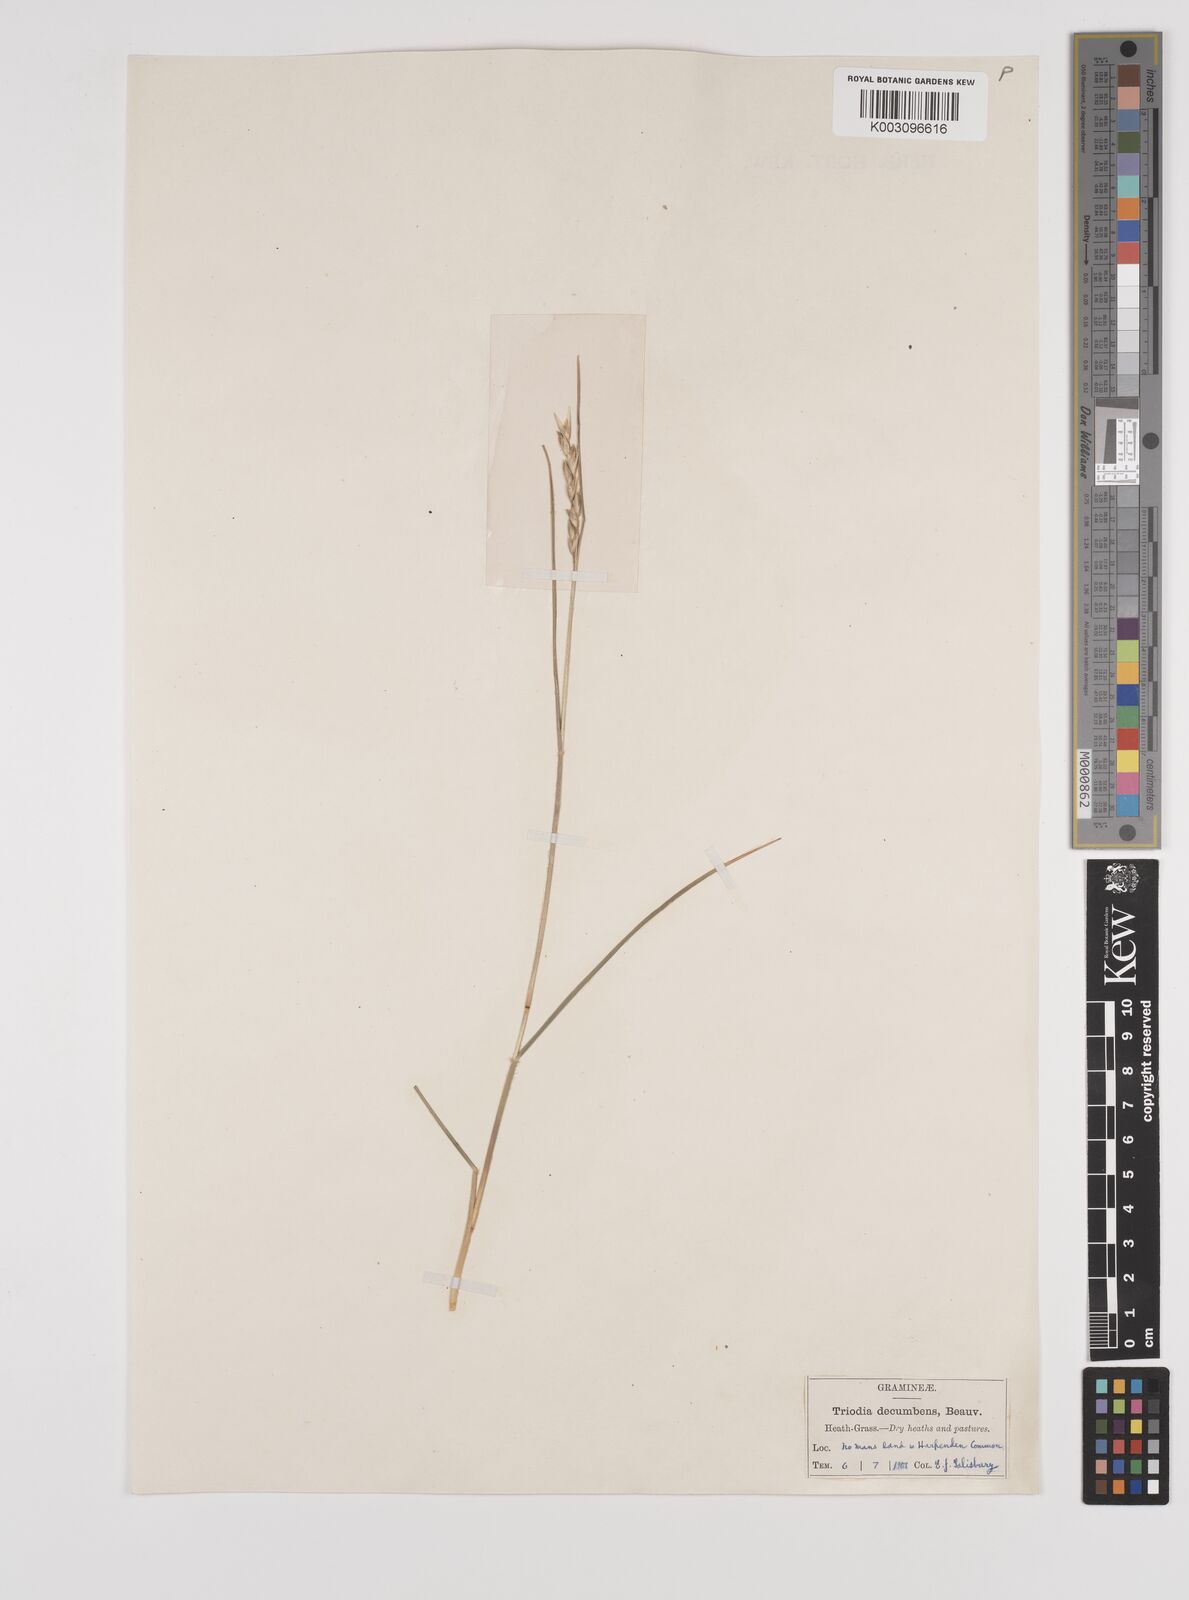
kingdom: Plantae
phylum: Tracheophyta
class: Liliopsida
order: Poales
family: Poaceae
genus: Danthonia
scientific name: Danthonia decumbens
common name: Common heathgrass
